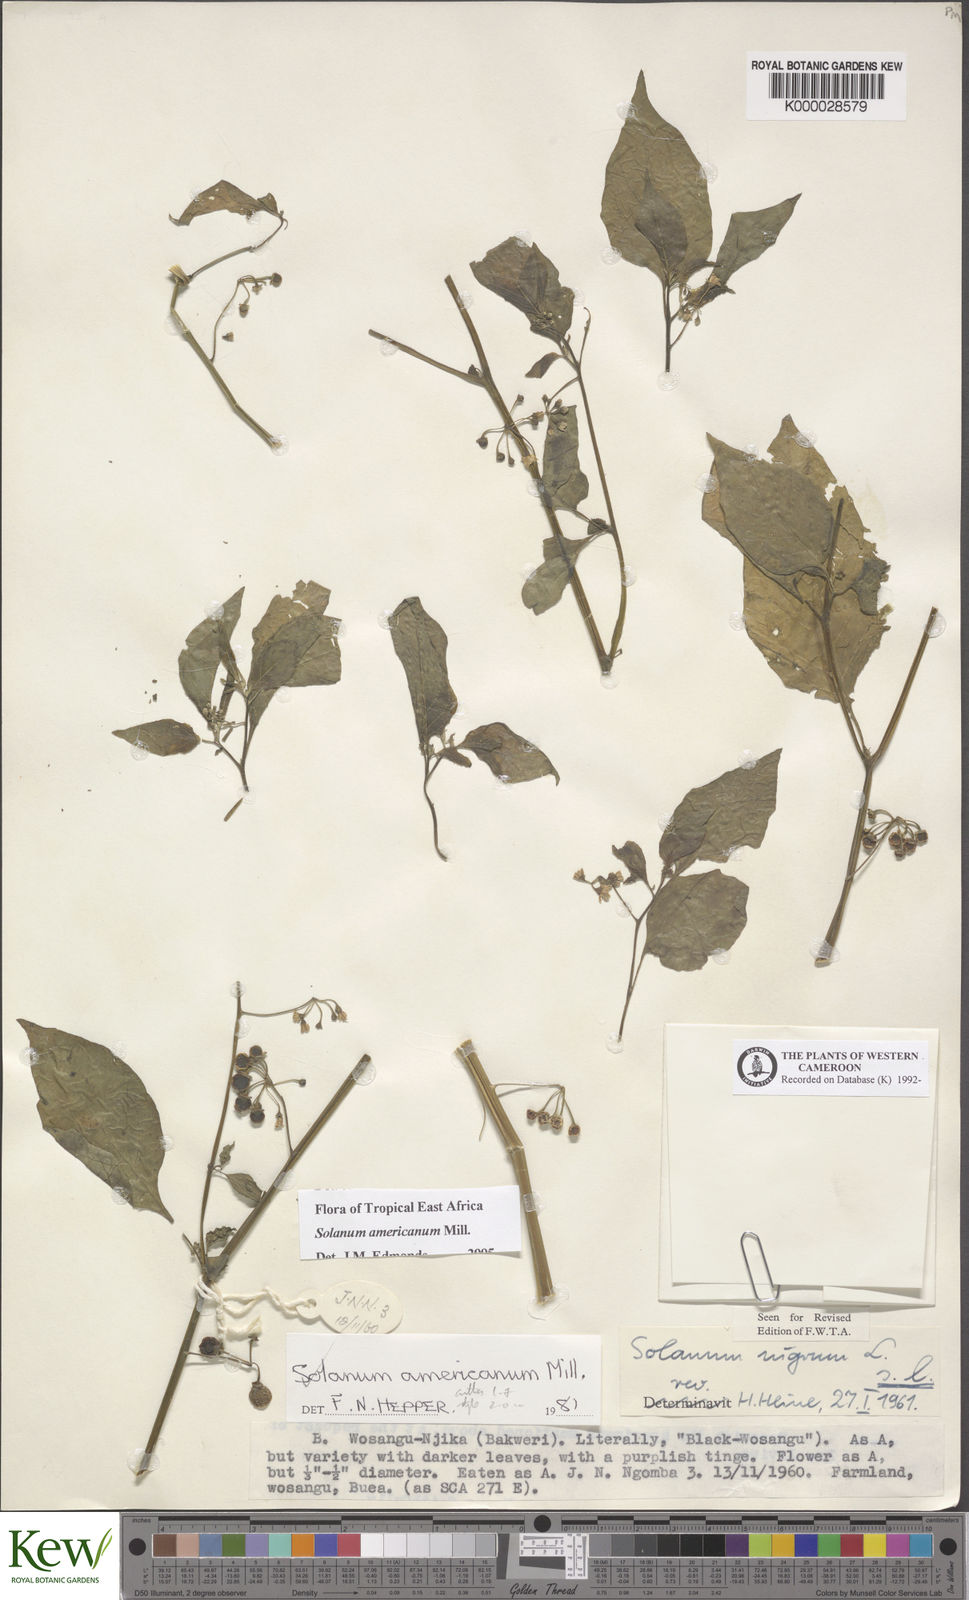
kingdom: Plantae
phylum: Tracheophyta
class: Magnoliopsida
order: Solanales
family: Solanaceae
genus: Solanum
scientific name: Solanum americanum
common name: American black nightshade
